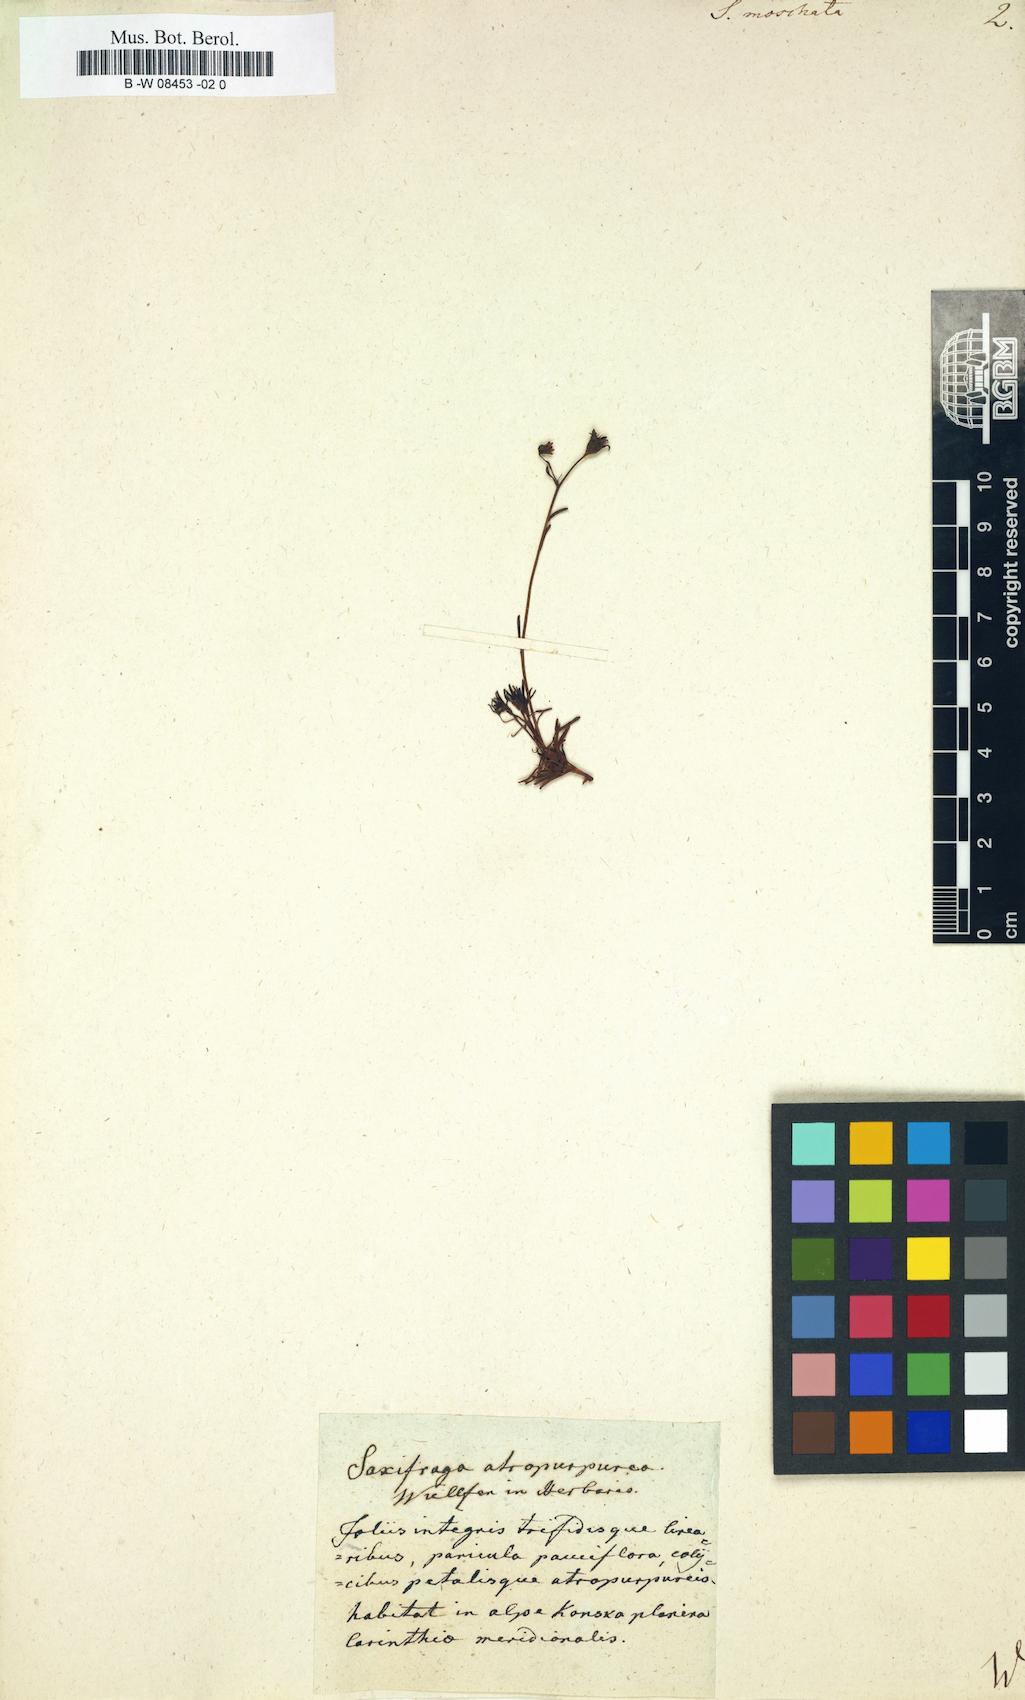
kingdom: Plantae
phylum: Tracheophyta
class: Magnoliopsida
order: Saxifragales
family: Saxifragaceae
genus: Saxifraga
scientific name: Saxifraga
